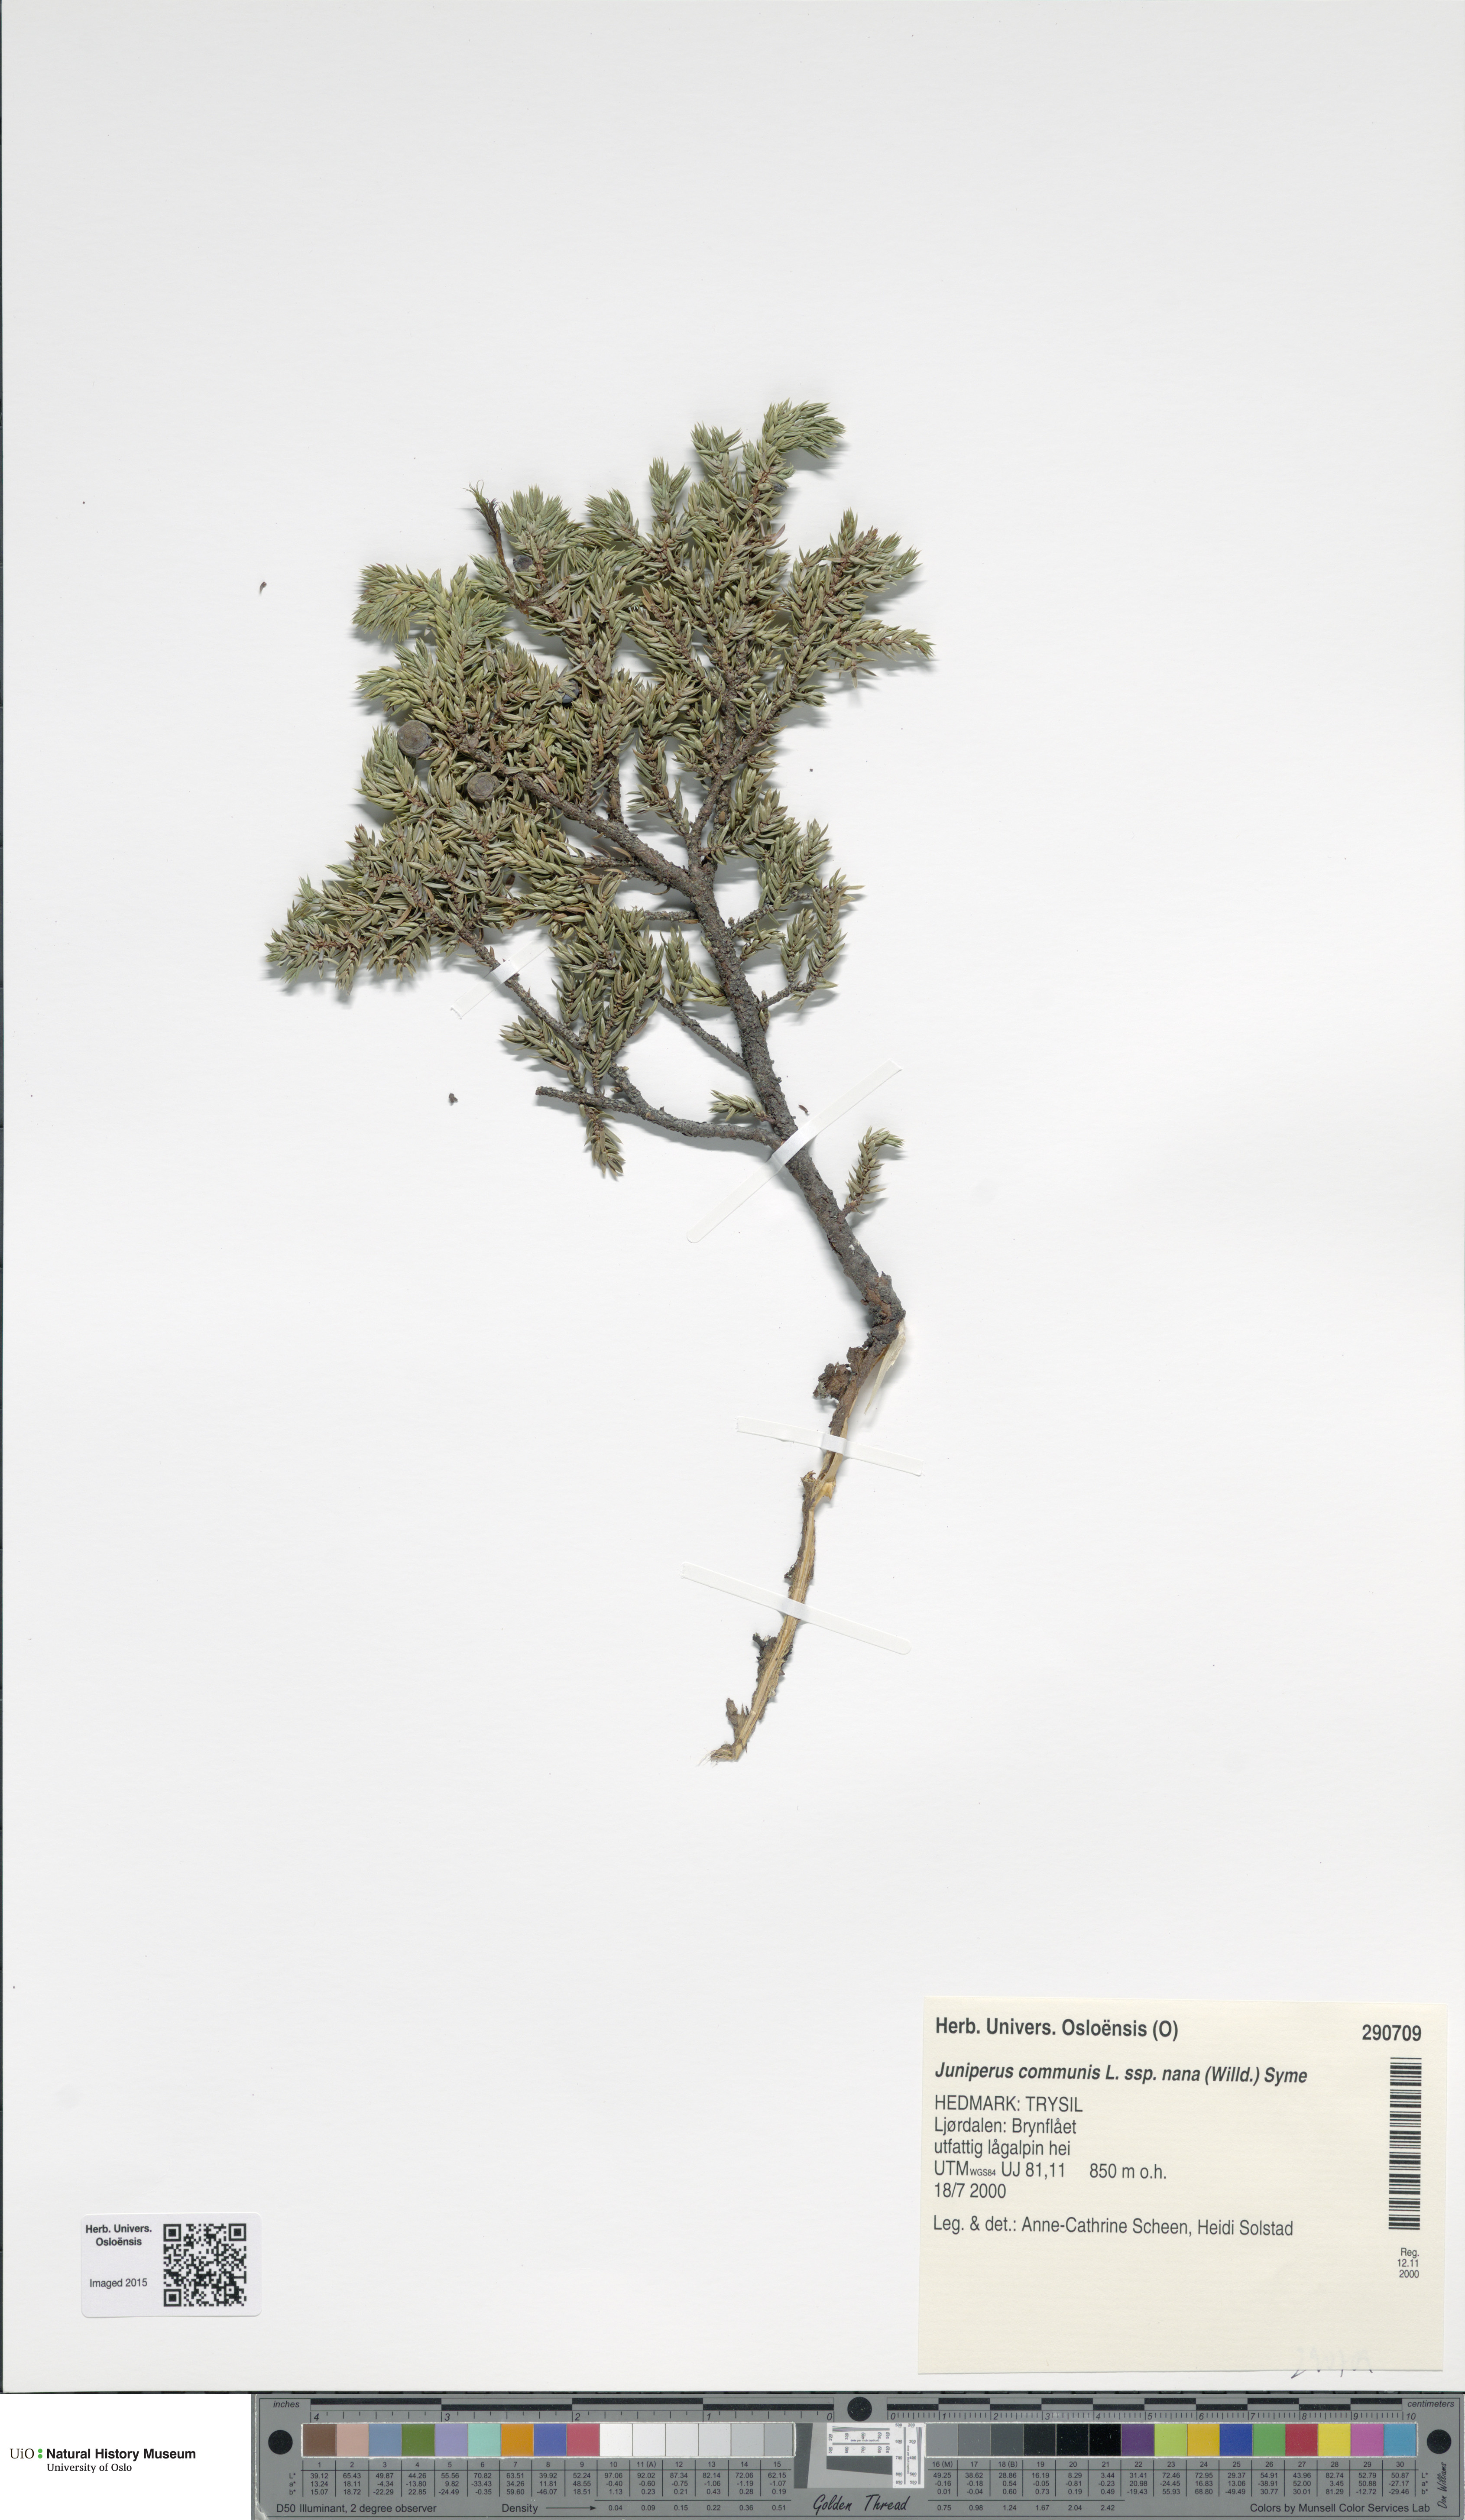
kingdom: Plantae
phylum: Tracheophyta
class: Pinopsida
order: Pinales
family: Cupressaceae
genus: Juniperus
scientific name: Juniperus communis
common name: Common juniper
